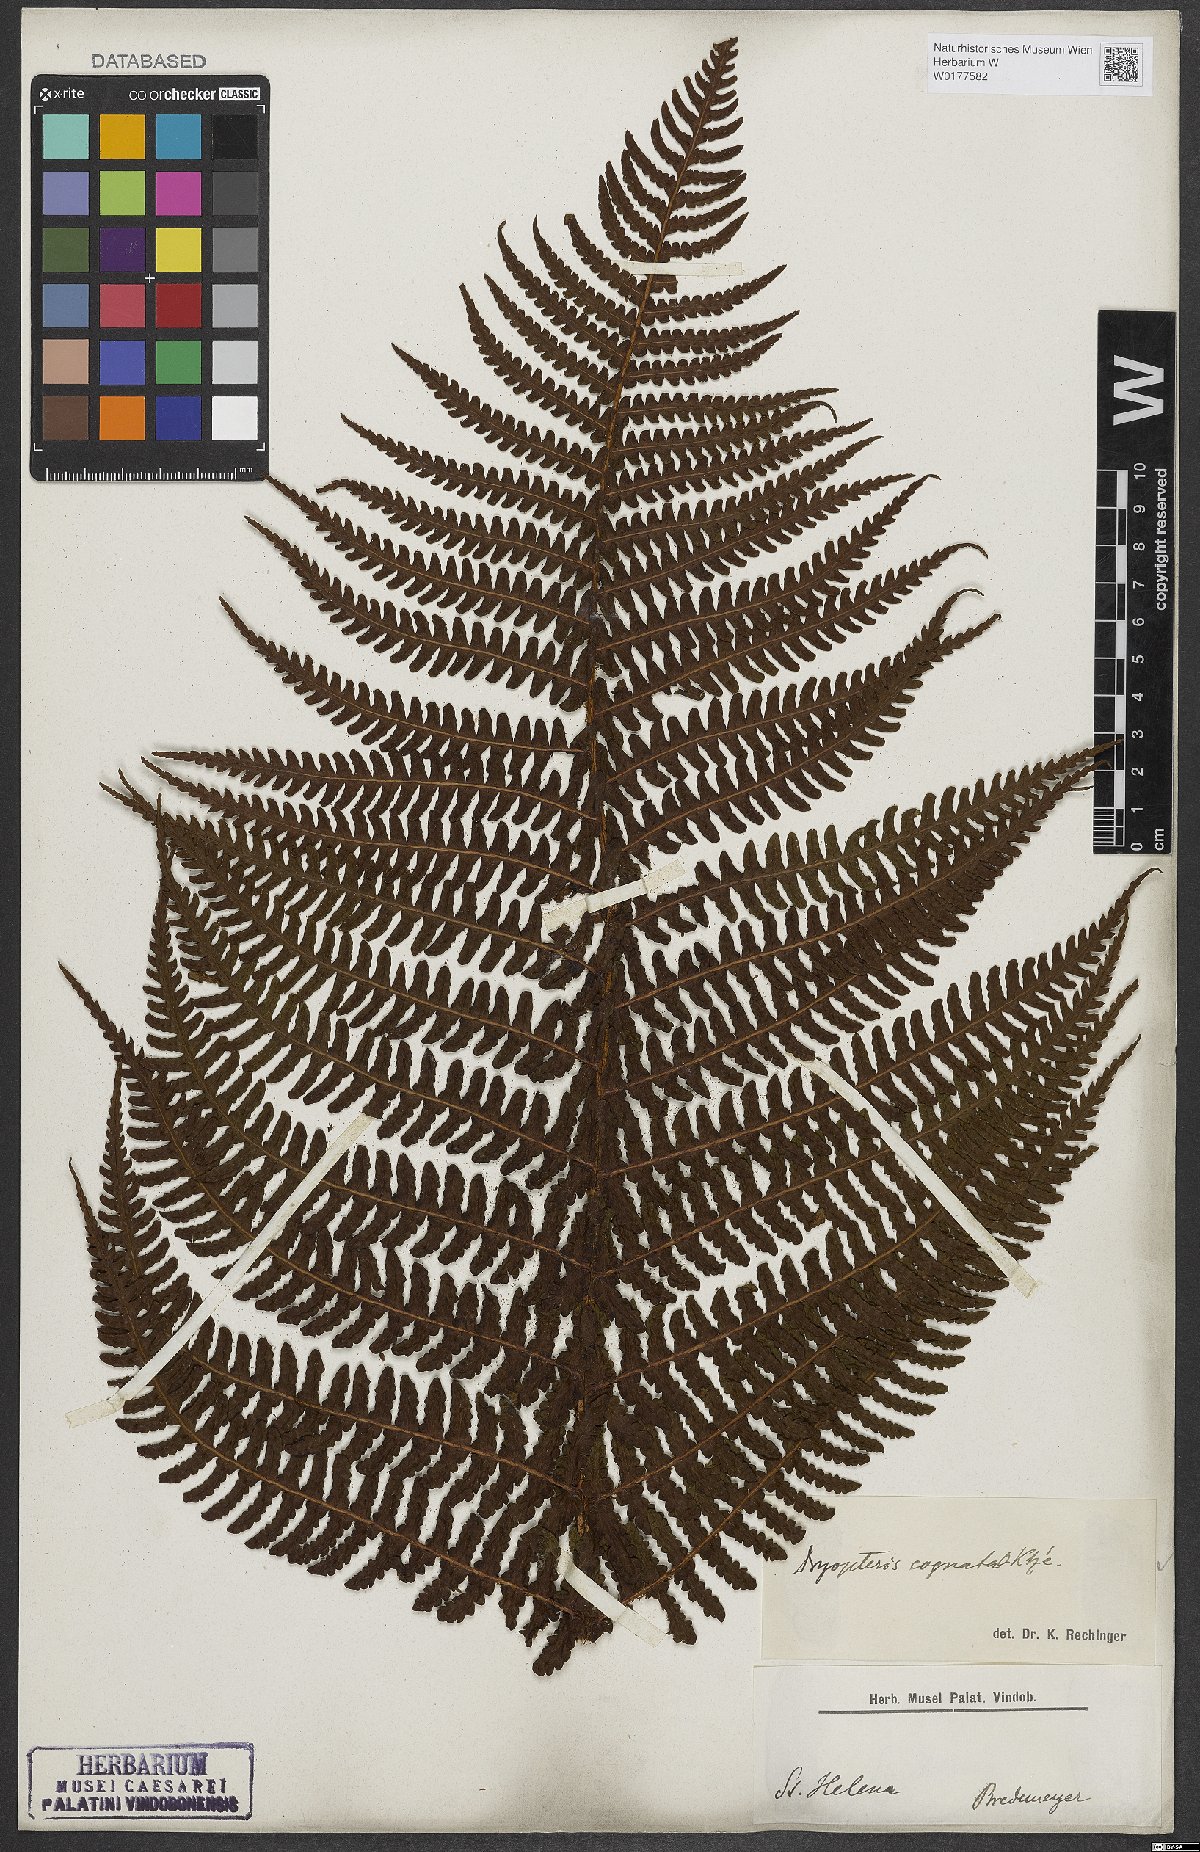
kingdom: Plantae
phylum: Tracheophyta
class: Polypodiopsida
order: Polypodiales
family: Dryopteridaceae
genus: Dryopteris
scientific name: Dryopteris cognata
